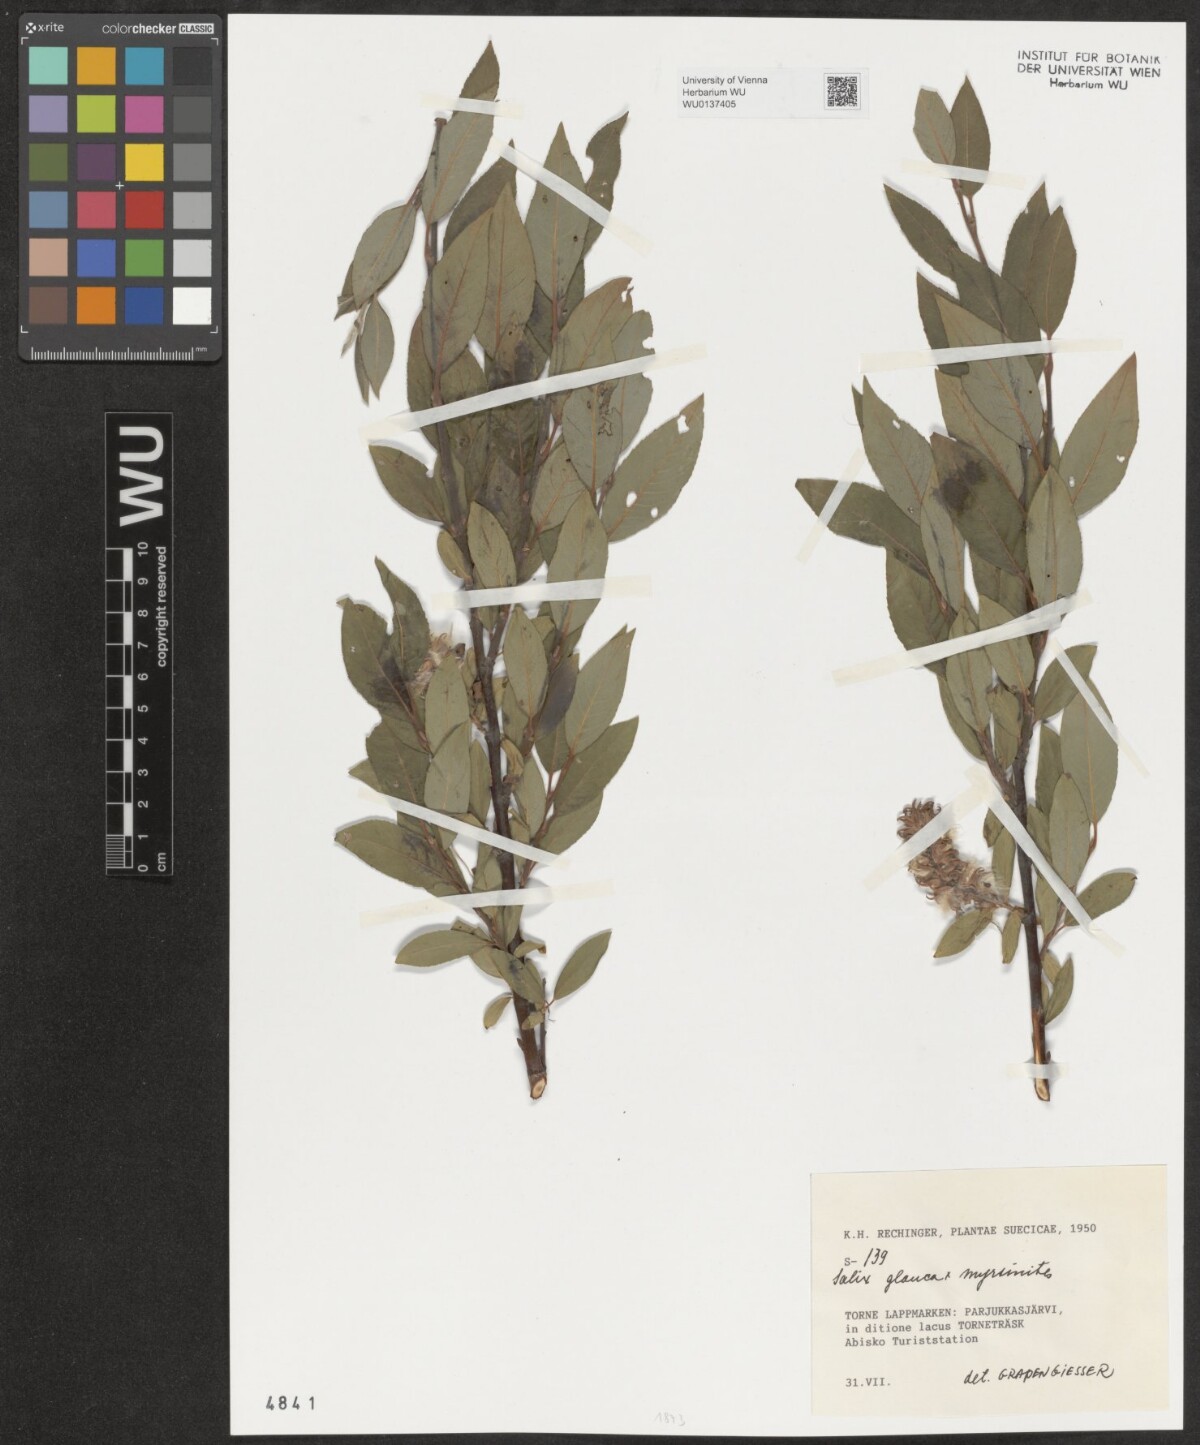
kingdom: Plantae
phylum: Tracheophyta
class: Magnoliopsida
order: Malpighiales
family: Salicaceae
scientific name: Salicaceae
